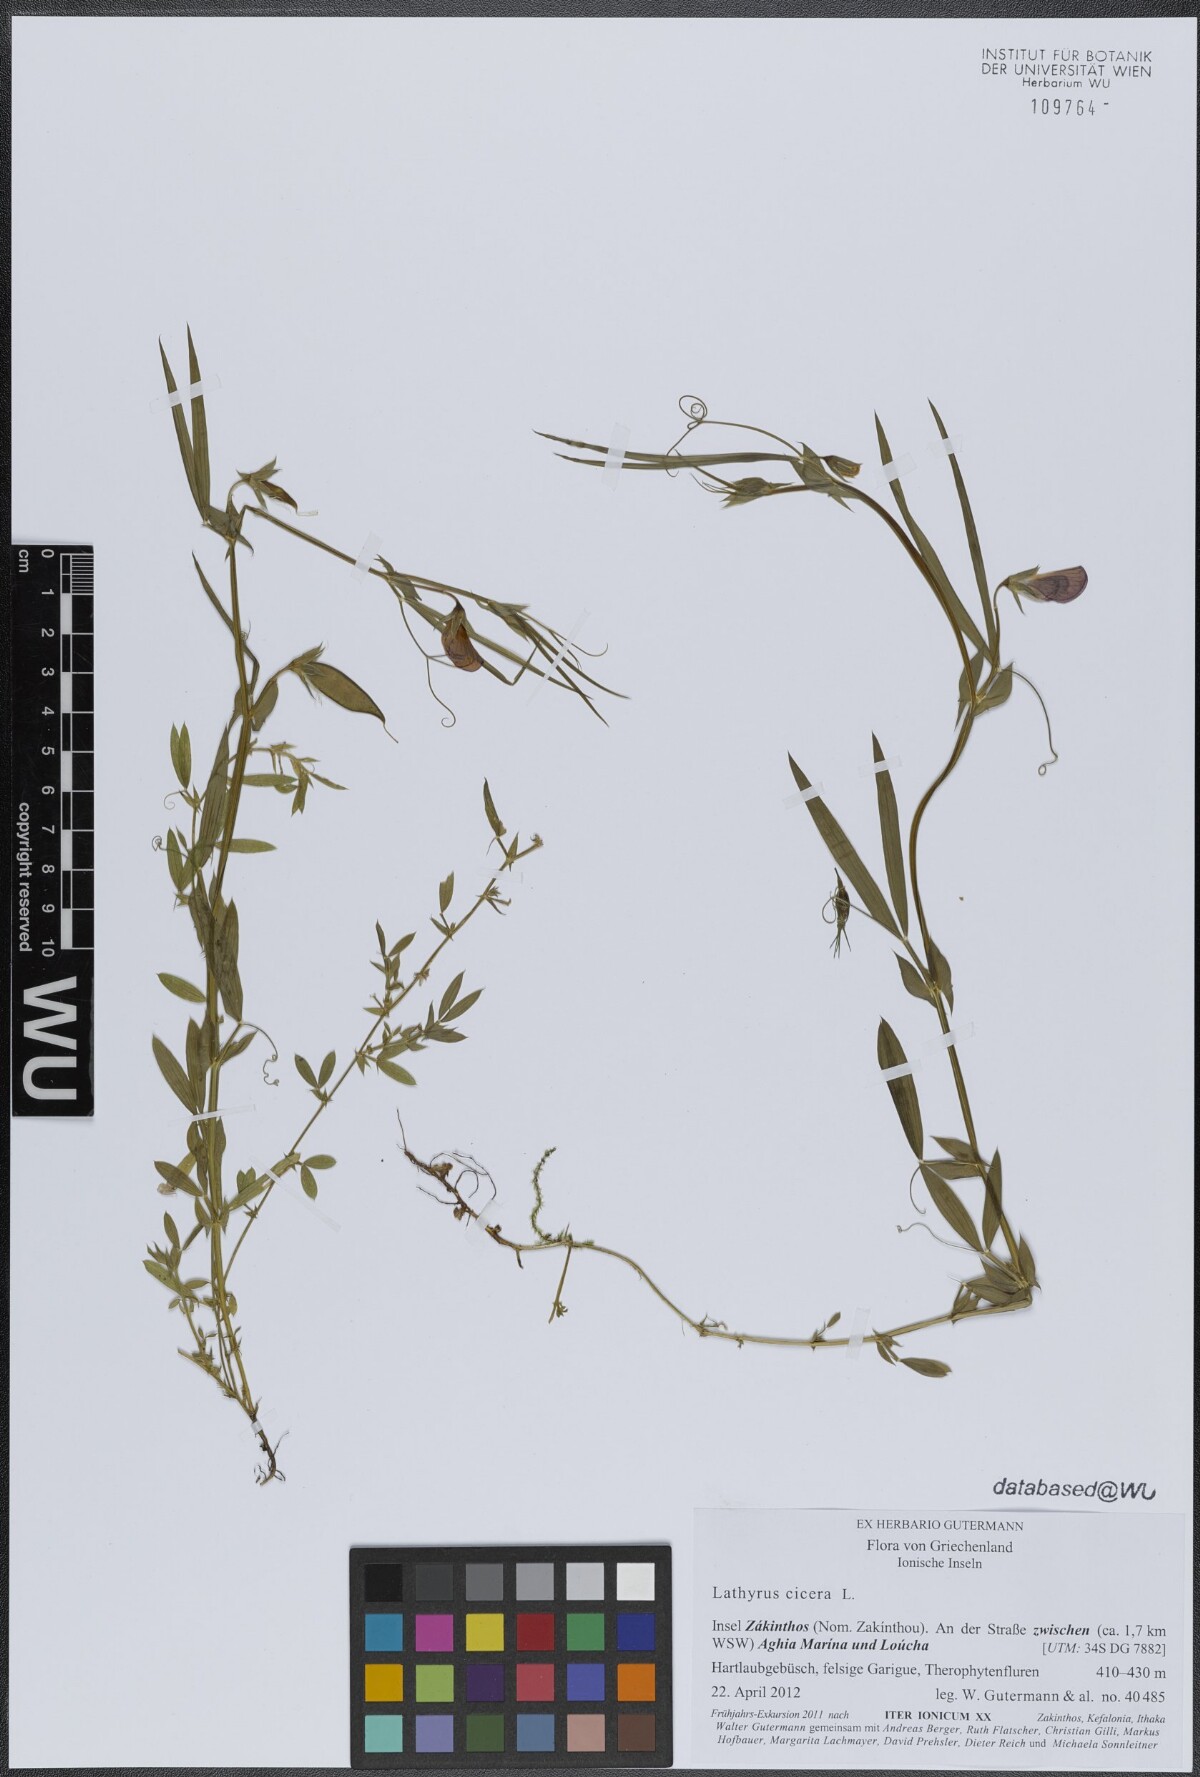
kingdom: Plantae
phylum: Tracheophyta
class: Magnoliopsida
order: Fabales
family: Fabaceae
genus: Lathyrus
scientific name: Lathyrus cicera
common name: Red vetchling
